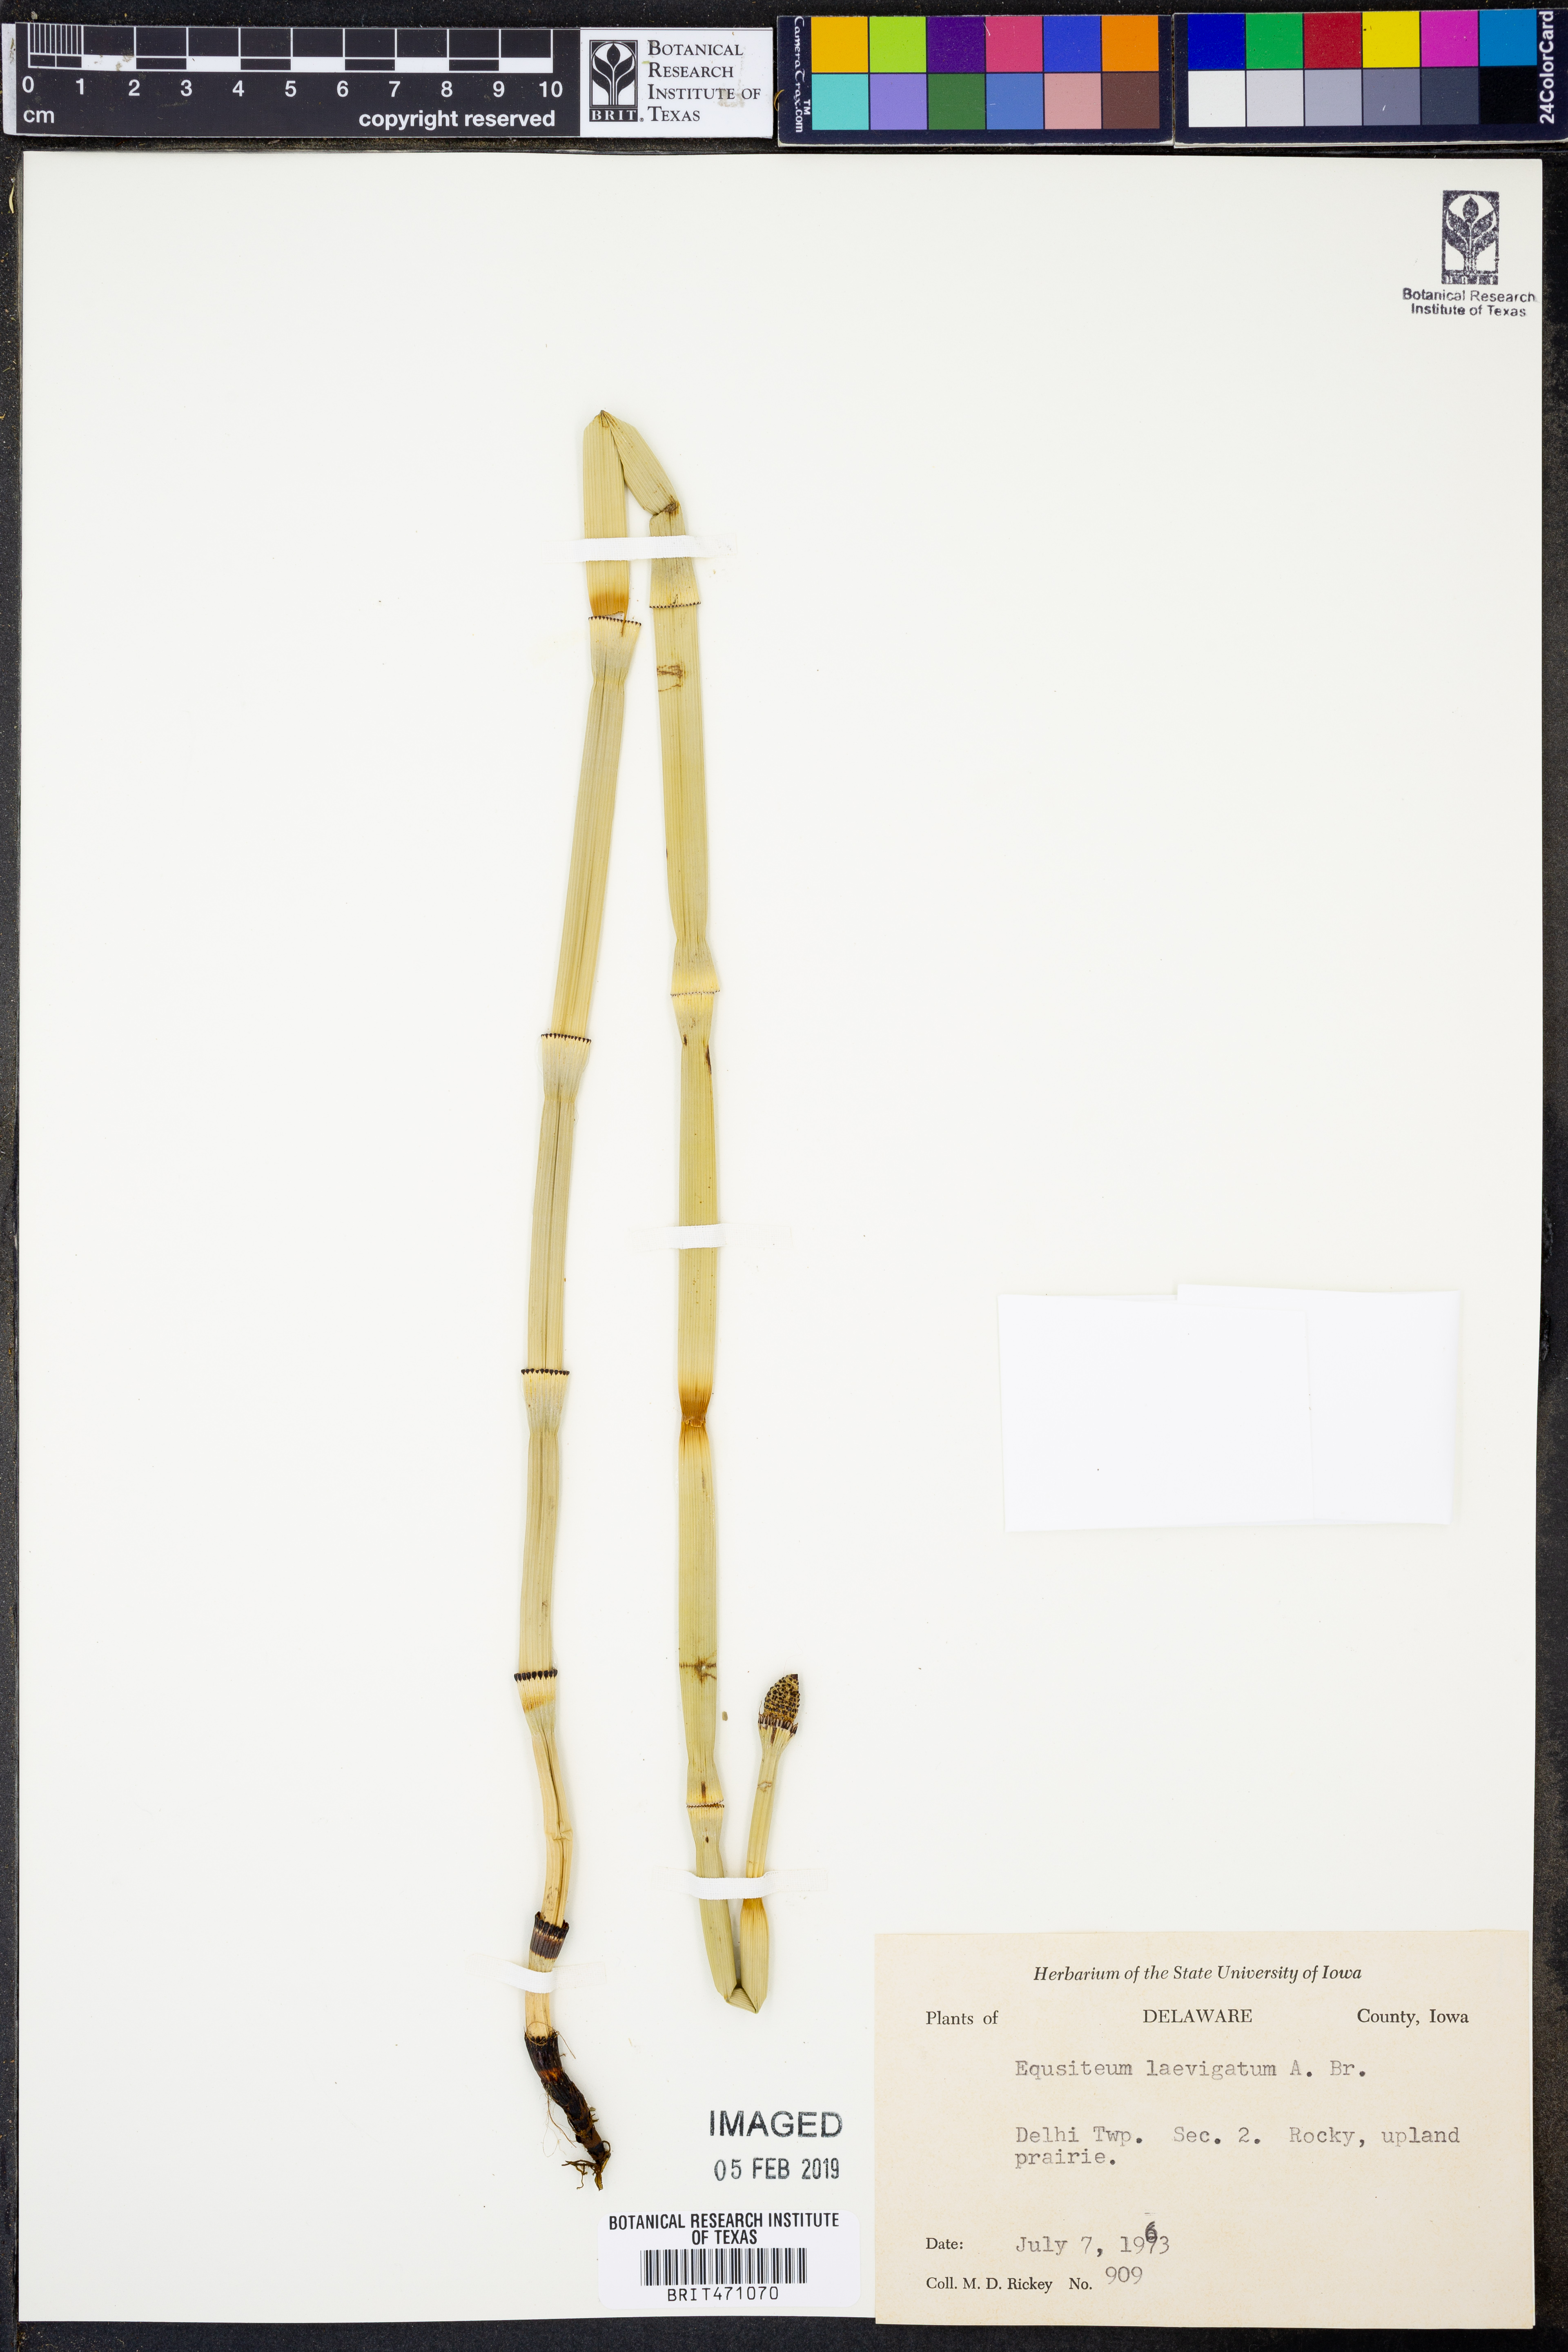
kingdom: Plantae
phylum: Tracheophyta
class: Polypodiopsida
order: Equisetales
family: Equisetaceae
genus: Equisetum
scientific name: Equisetum laevigatum
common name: Smooth scouring-rush
